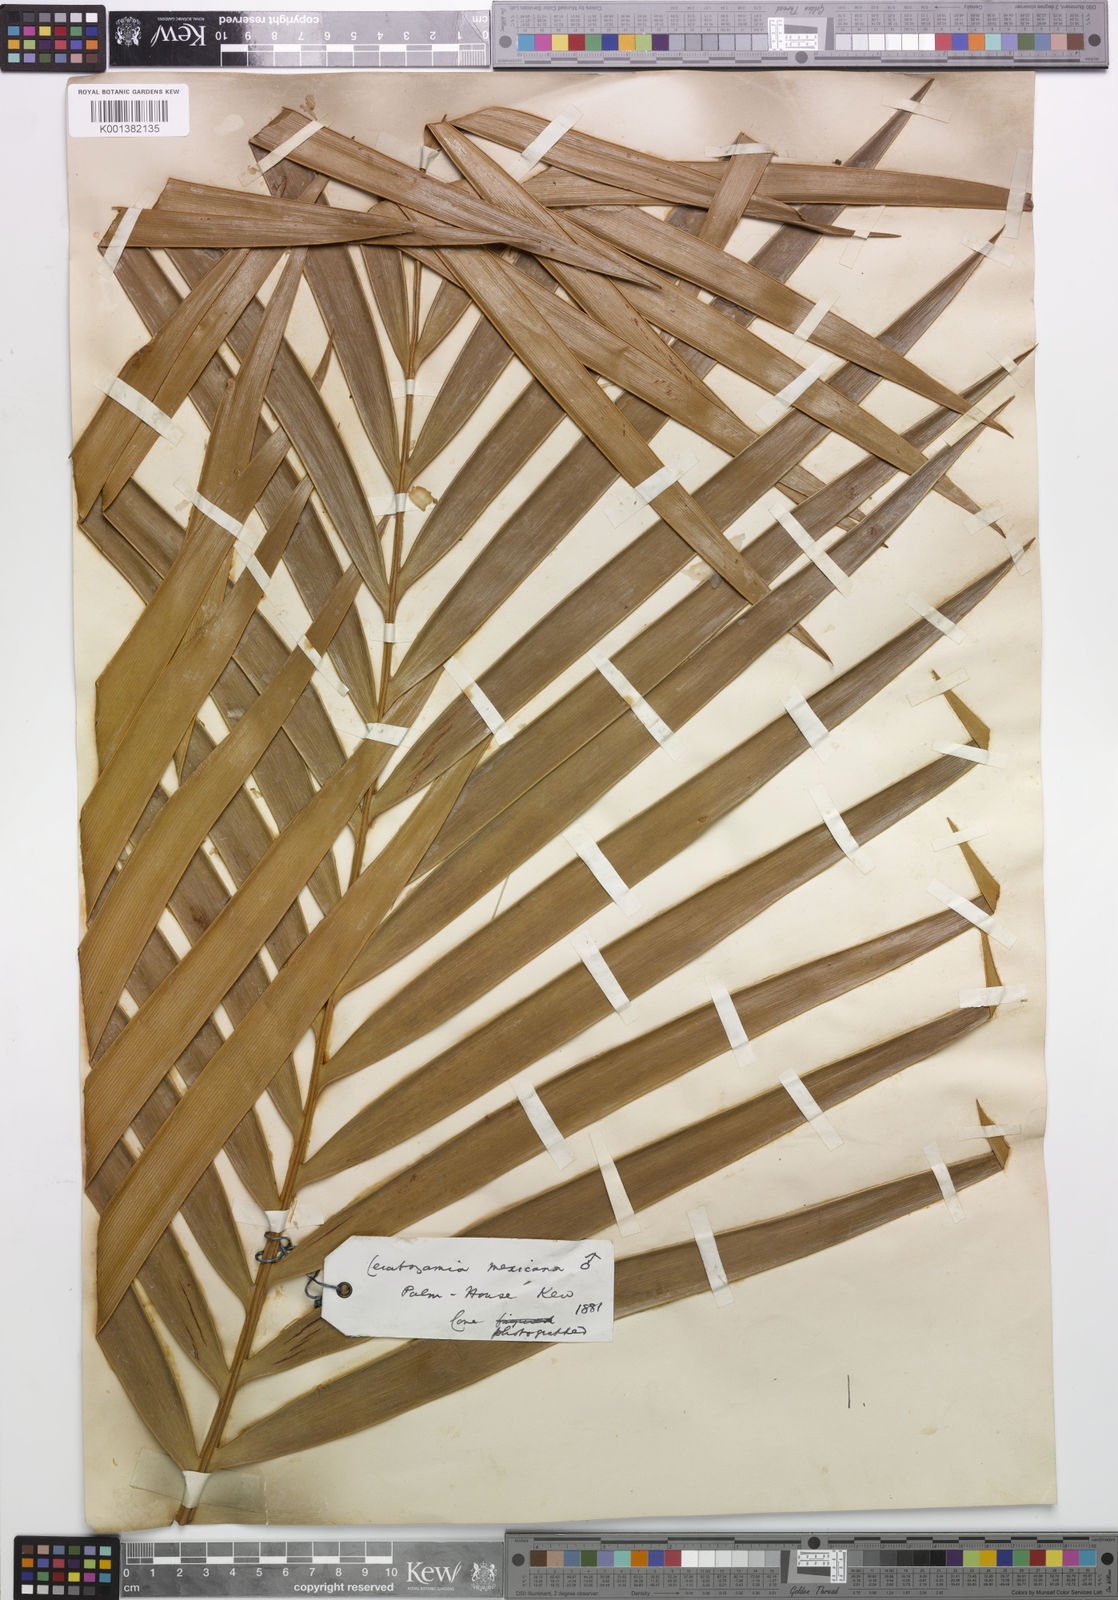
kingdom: Plantae
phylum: Tracheophyta
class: Cycadopsida
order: Cycadales
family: Zamiaceae
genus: Ceratozamia
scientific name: Ceratozamia mexicana
